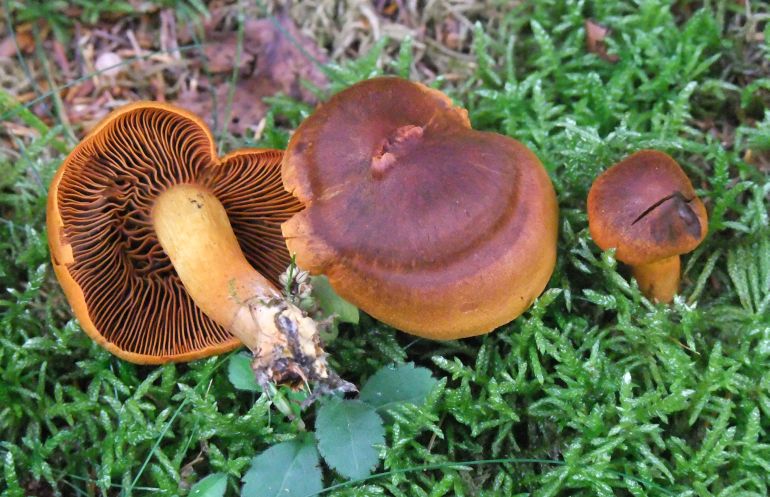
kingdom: Fungi
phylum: Basidiomycota
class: Agaricomycetes
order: Agaricales
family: Cortinariaceae
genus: Cortinarius
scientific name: Cortinarius malicorius
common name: grønkødet slørhat
